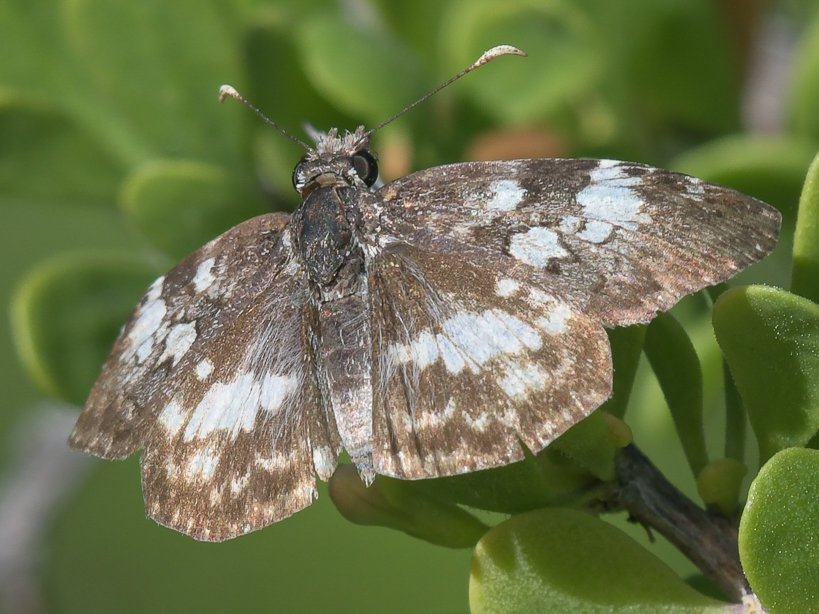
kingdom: Animalia
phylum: Arthropoda
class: Insecta
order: Lepidoptera
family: Hesperiidae
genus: Chiomara
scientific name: Chiomara asychis
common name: White-patched Skipper
